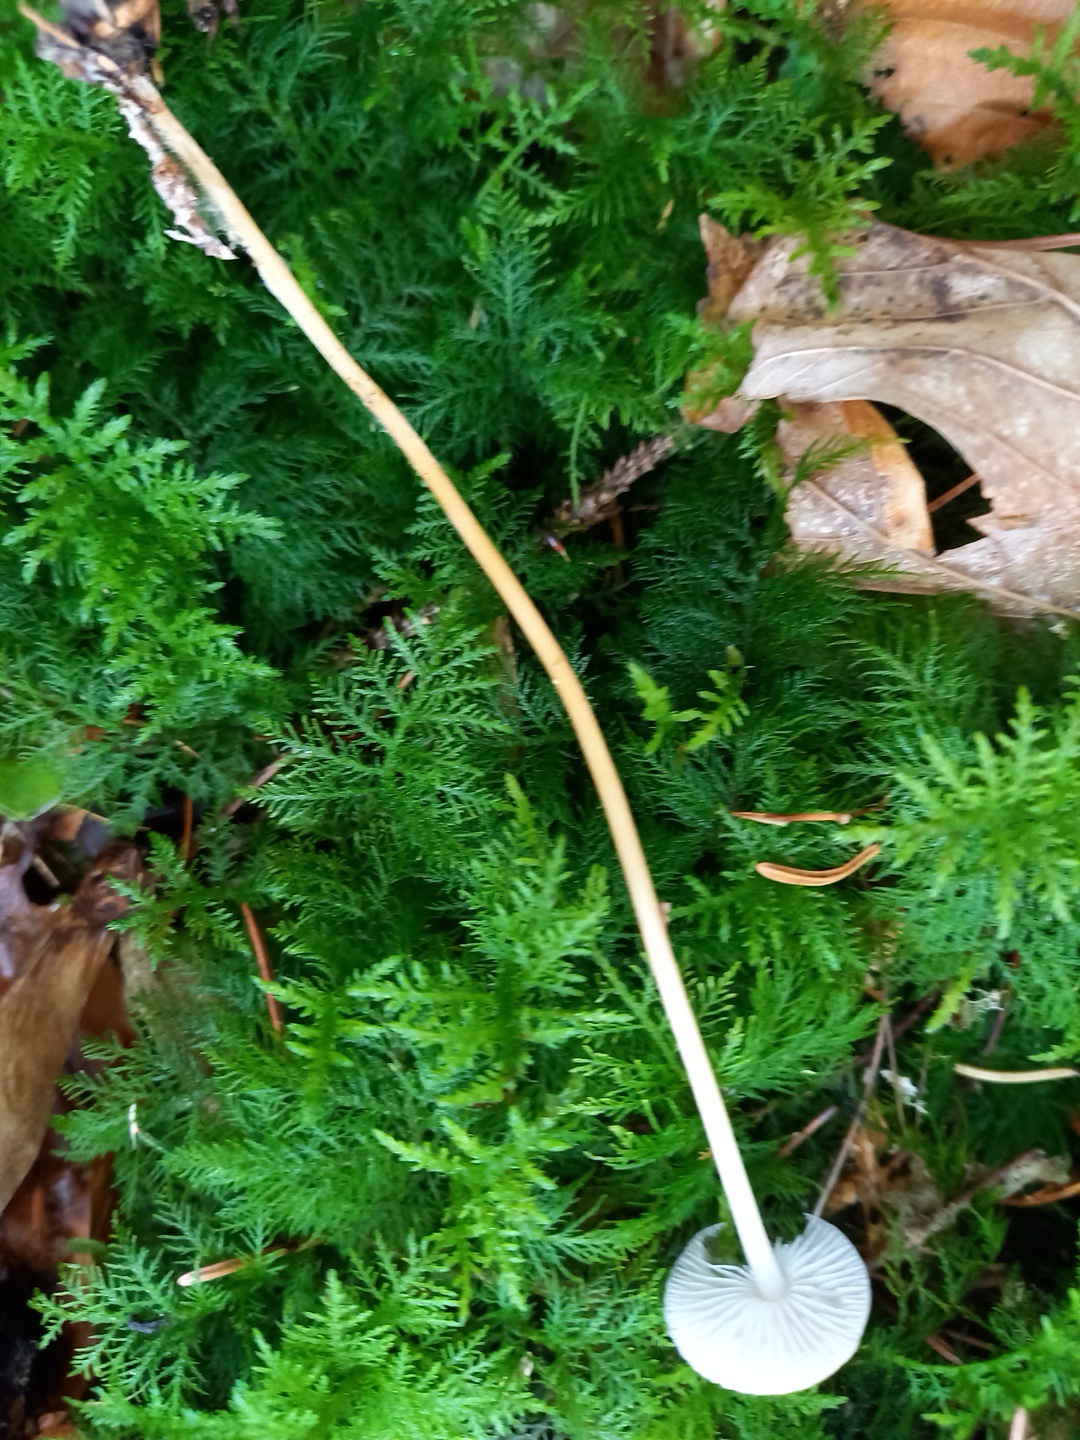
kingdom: Fungi
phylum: Basidiomycota
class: Agaricomycetes
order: Agaricales
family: Physalacriaceae
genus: Strobilurus
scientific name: Strobilurus esculentus
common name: gran-koglehat
